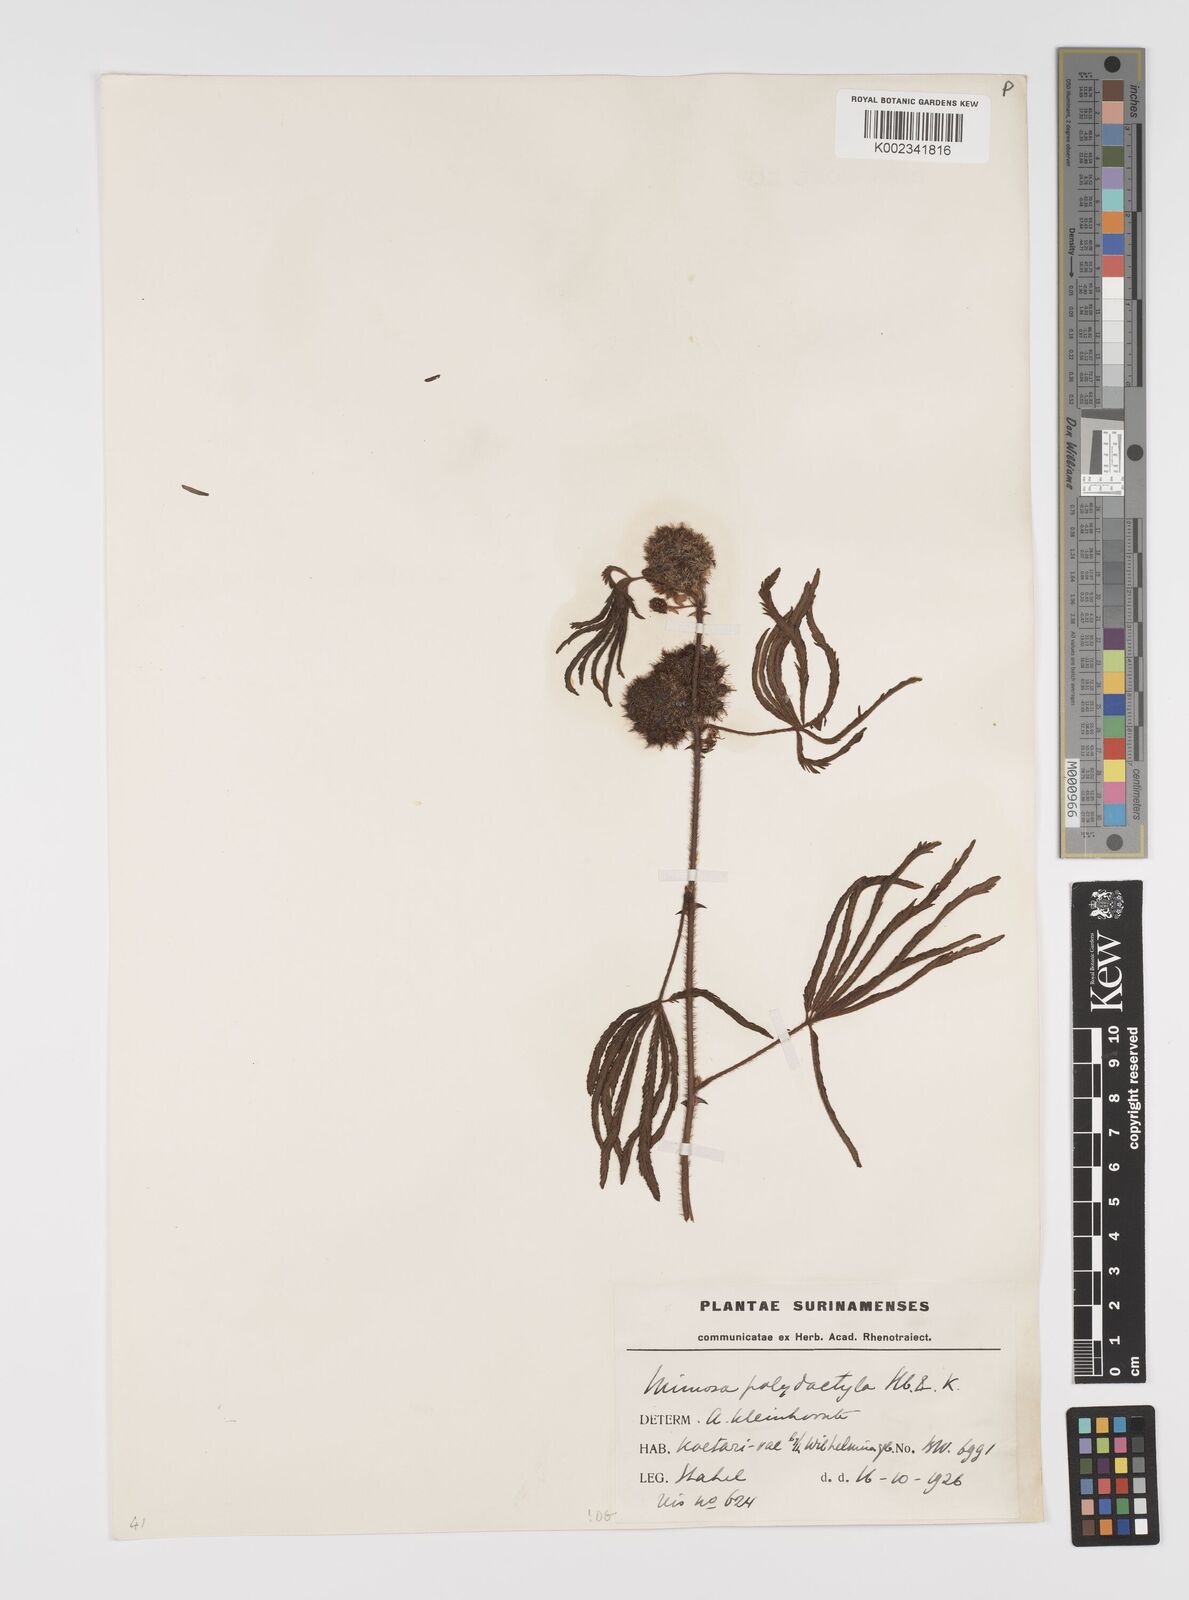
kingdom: Plantae
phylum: Tracheophyta
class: Magnoliopsida
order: Fabales
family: Fabaceae
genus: Mimosa
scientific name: Mimosa polydactyla
